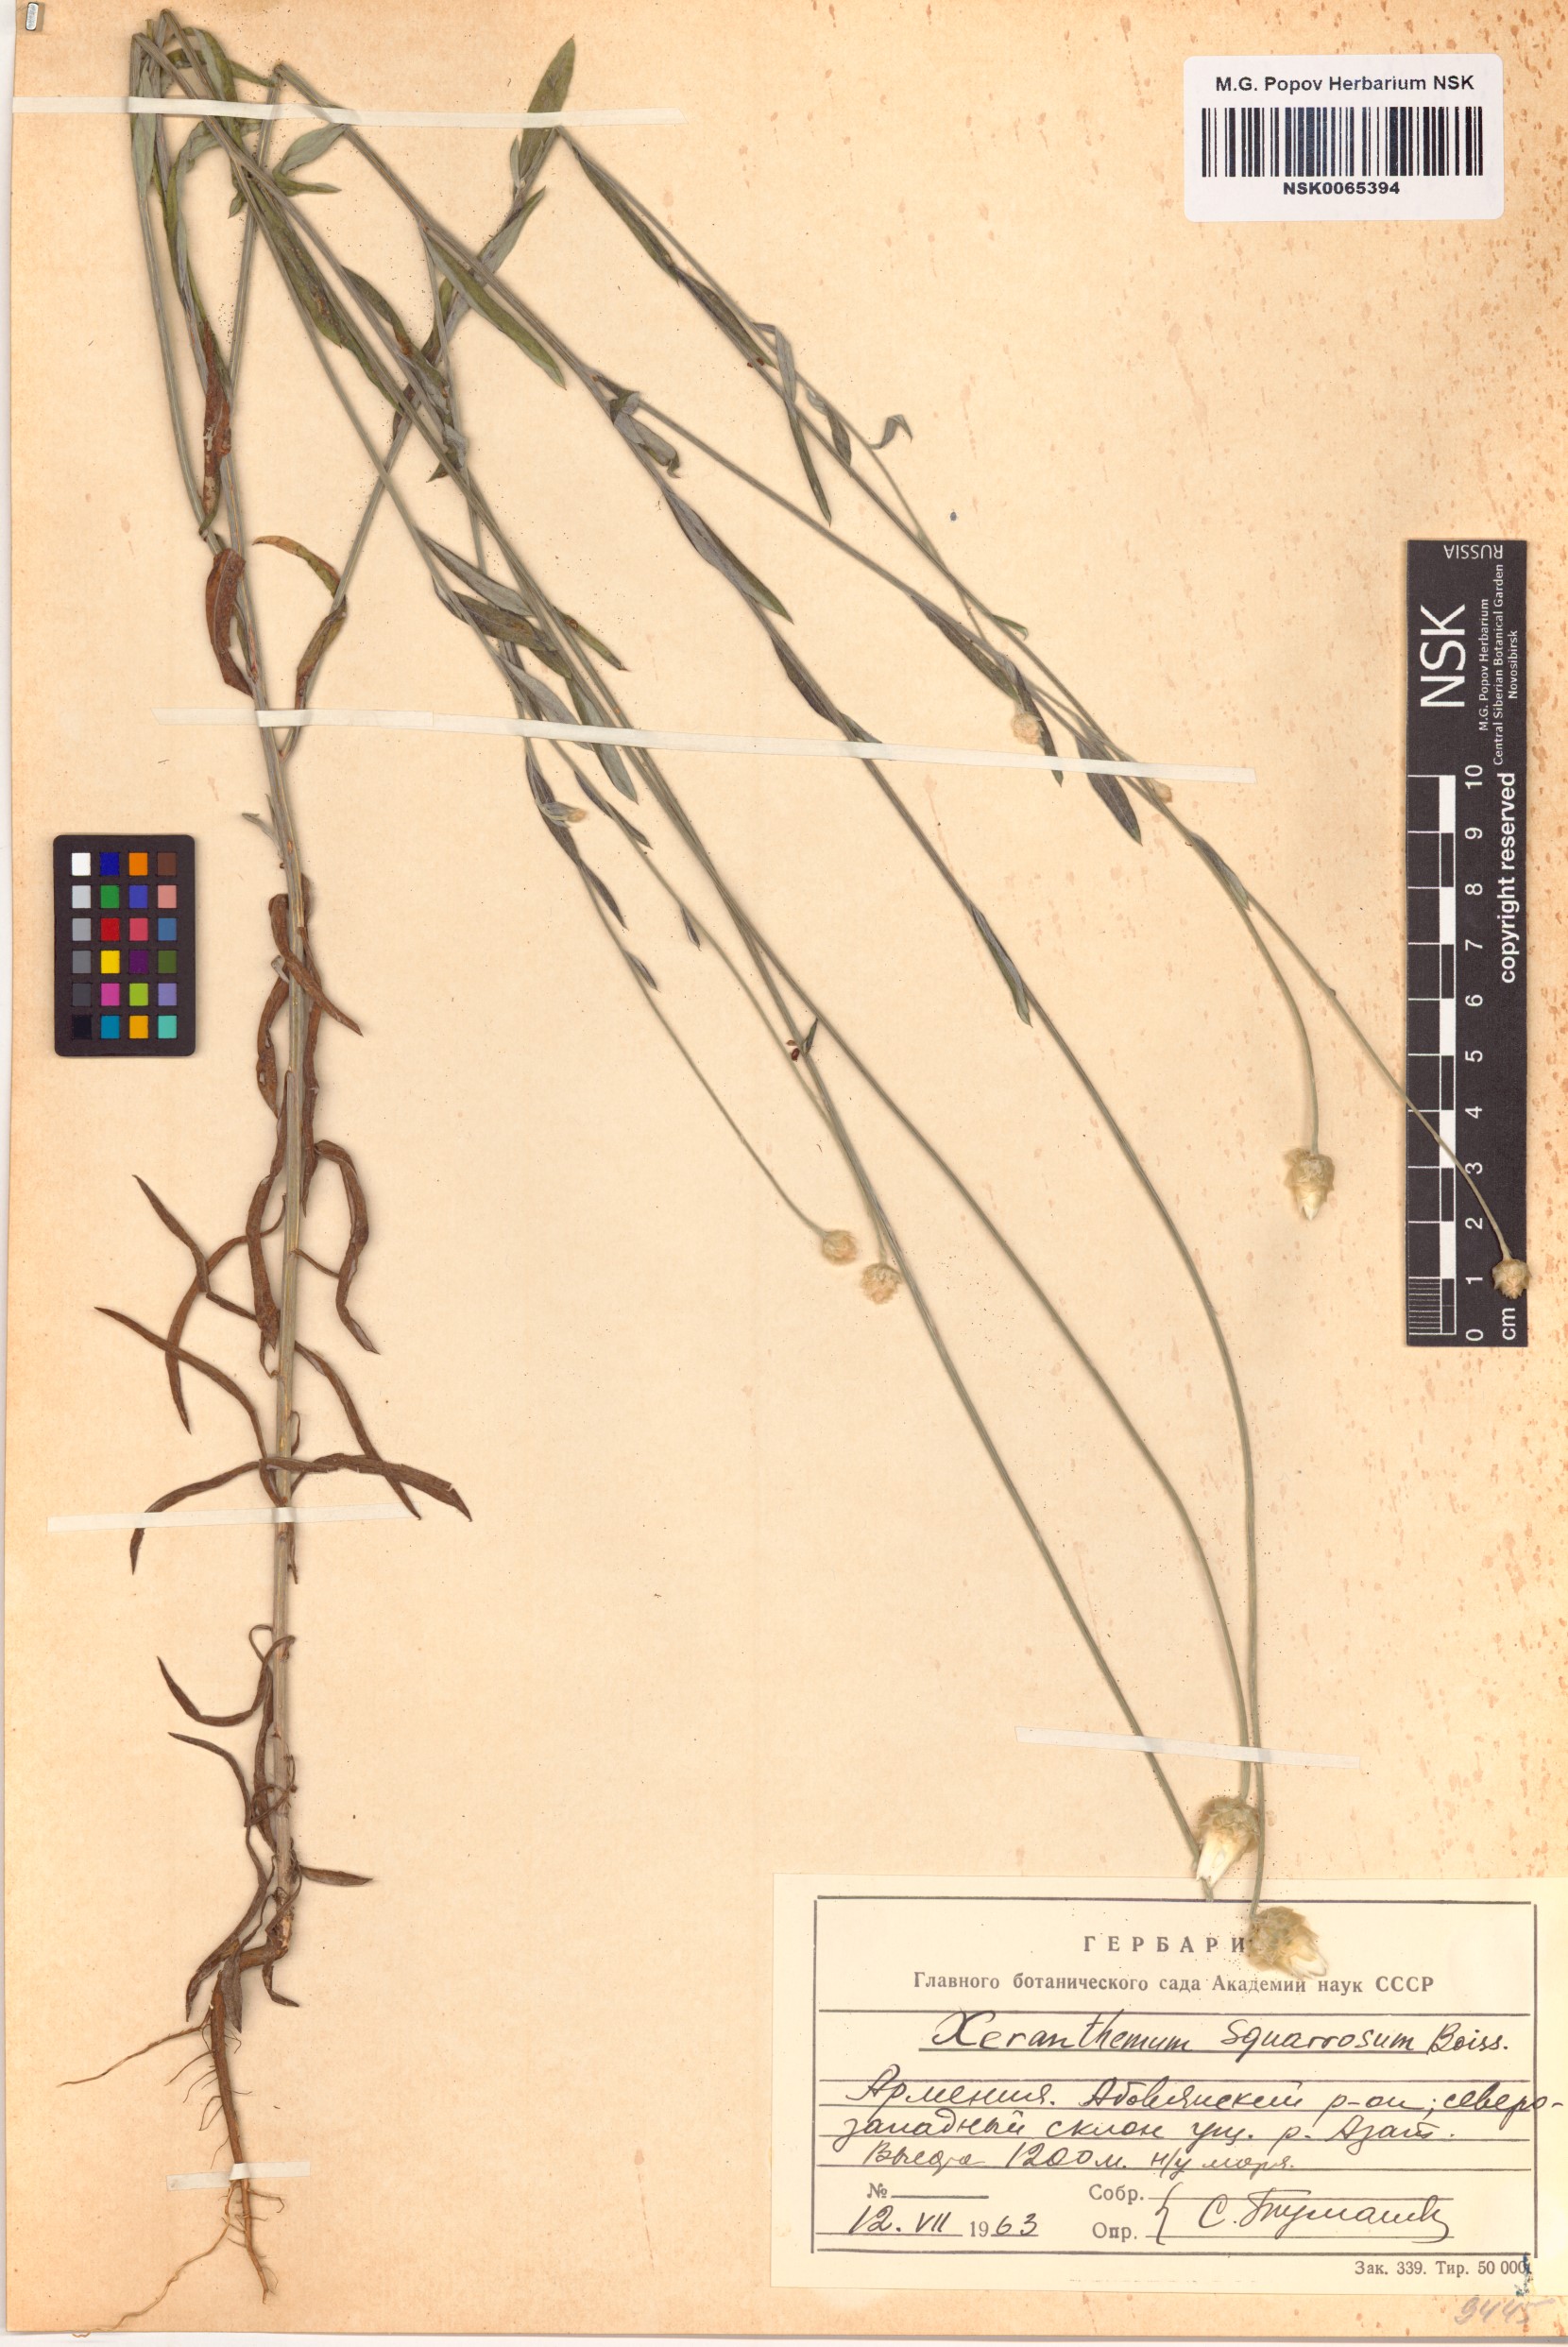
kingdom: Plantae
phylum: Tracheophyta
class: Magnoliopsida
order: Asterales
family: Asteraceae
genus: Xeranthemum
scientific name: Xeranthemum squarrosum
